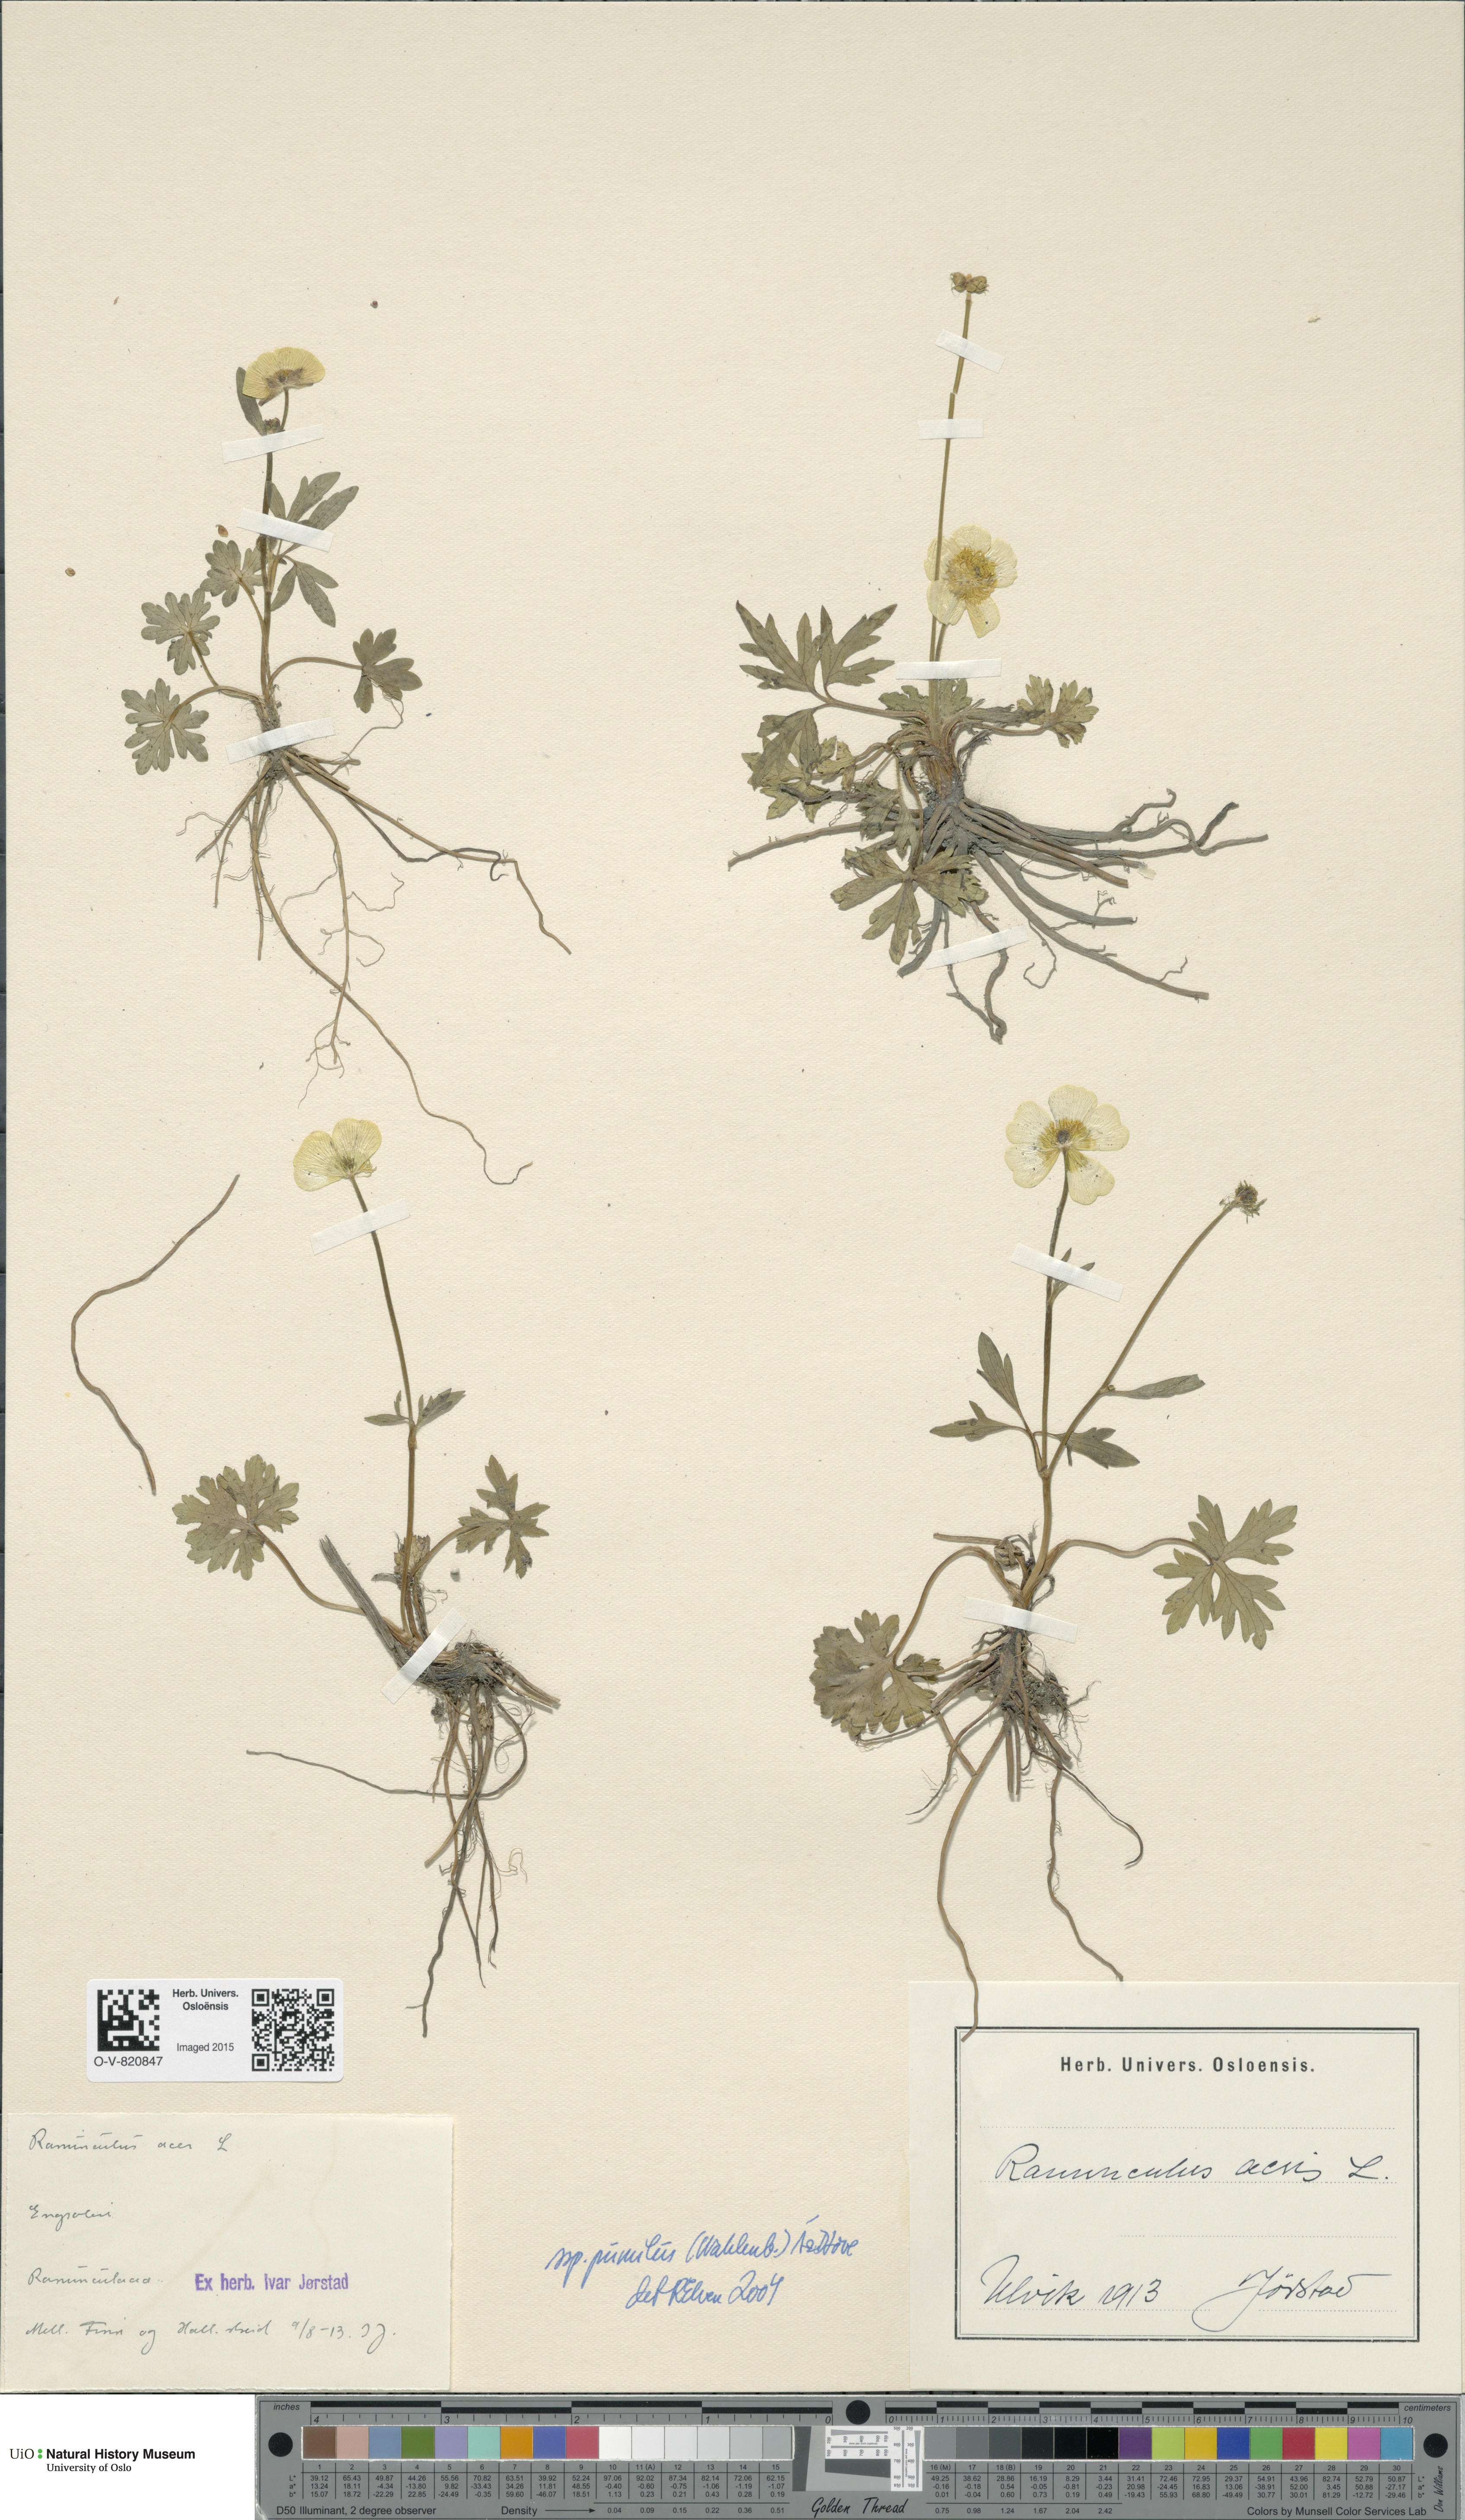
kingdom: Plantae
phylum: Tracheophyta
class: Magnoliopsida
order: Ranunculales
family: Ranunculaceae
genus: Ranunculus
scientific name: Ranunculus
